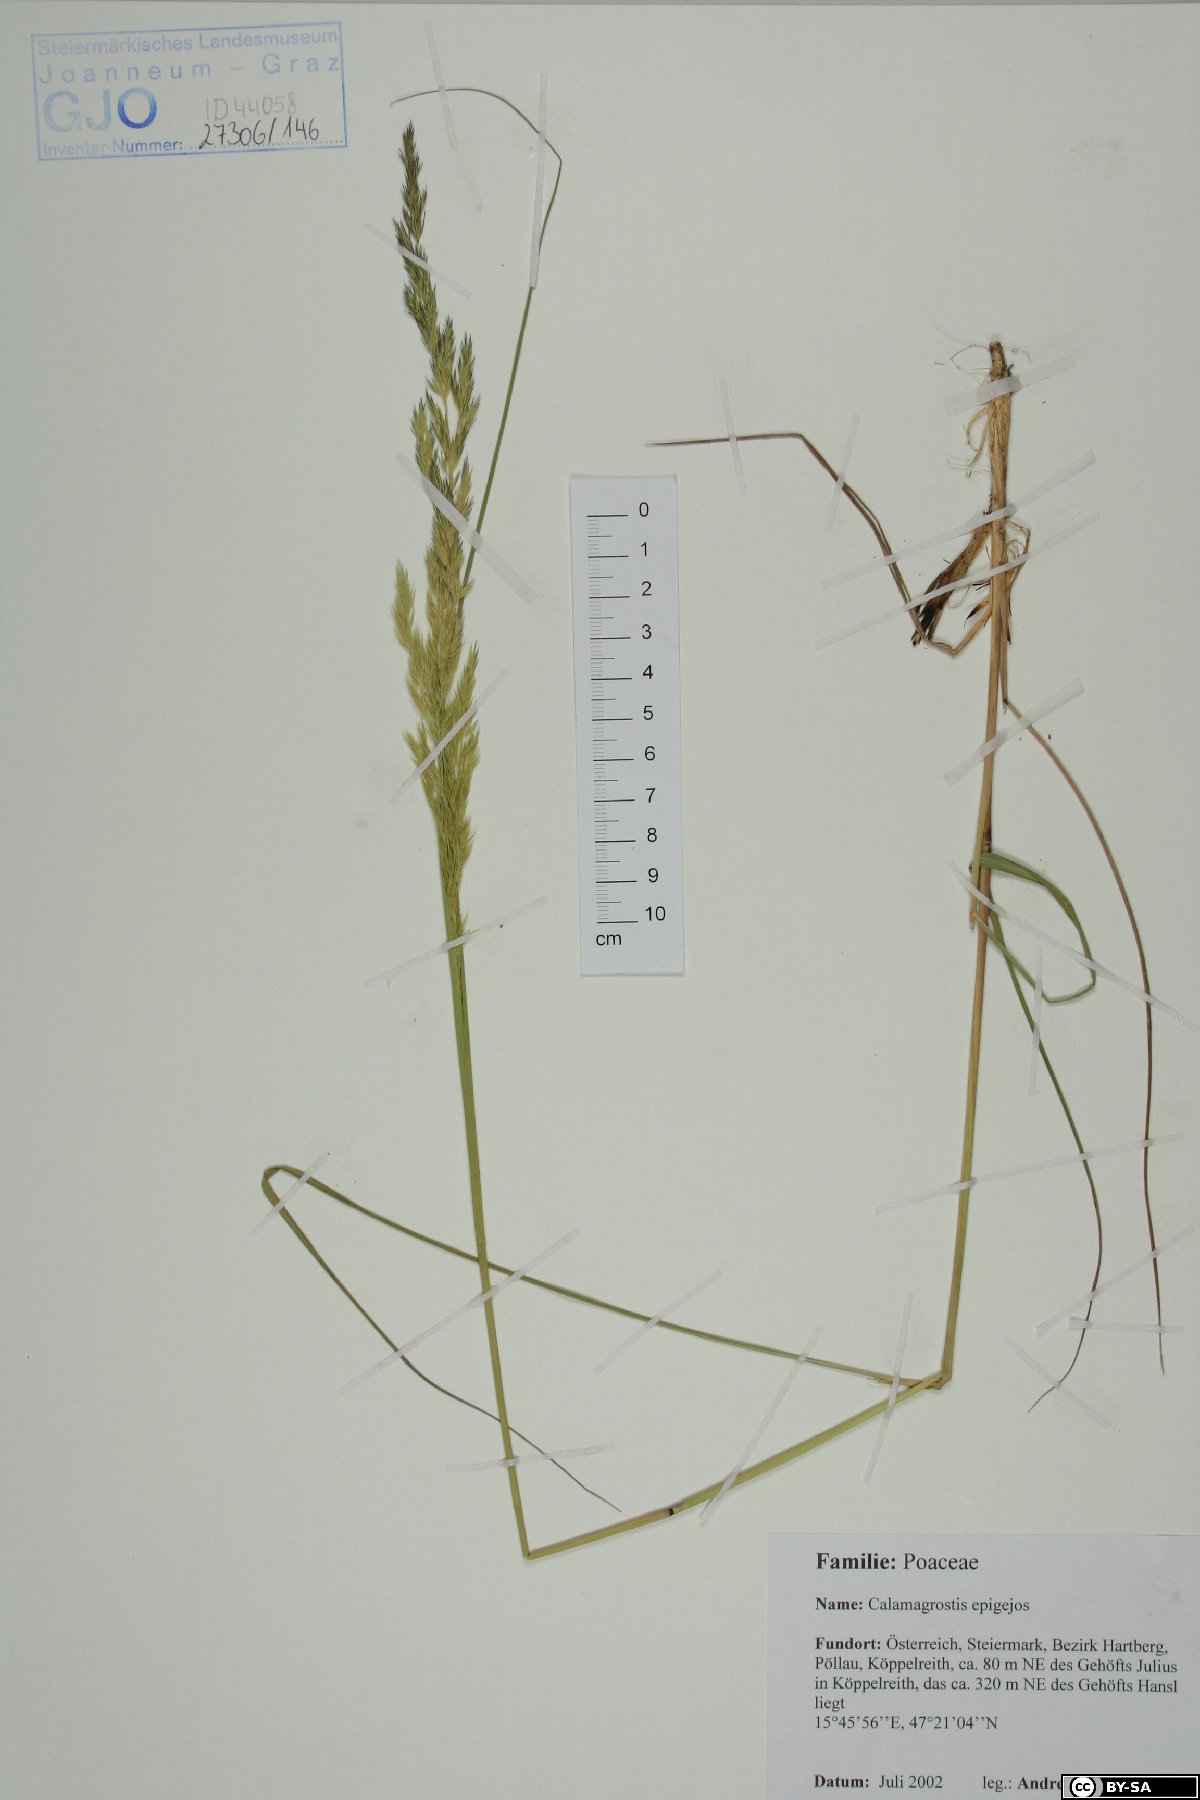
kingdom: Plantae
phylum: Tracheophyta
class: Liliopsida
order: Poales
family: Poaceae
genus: Calamagrostis
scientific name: Calamagrostis epigejos
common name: Wood small-reed
